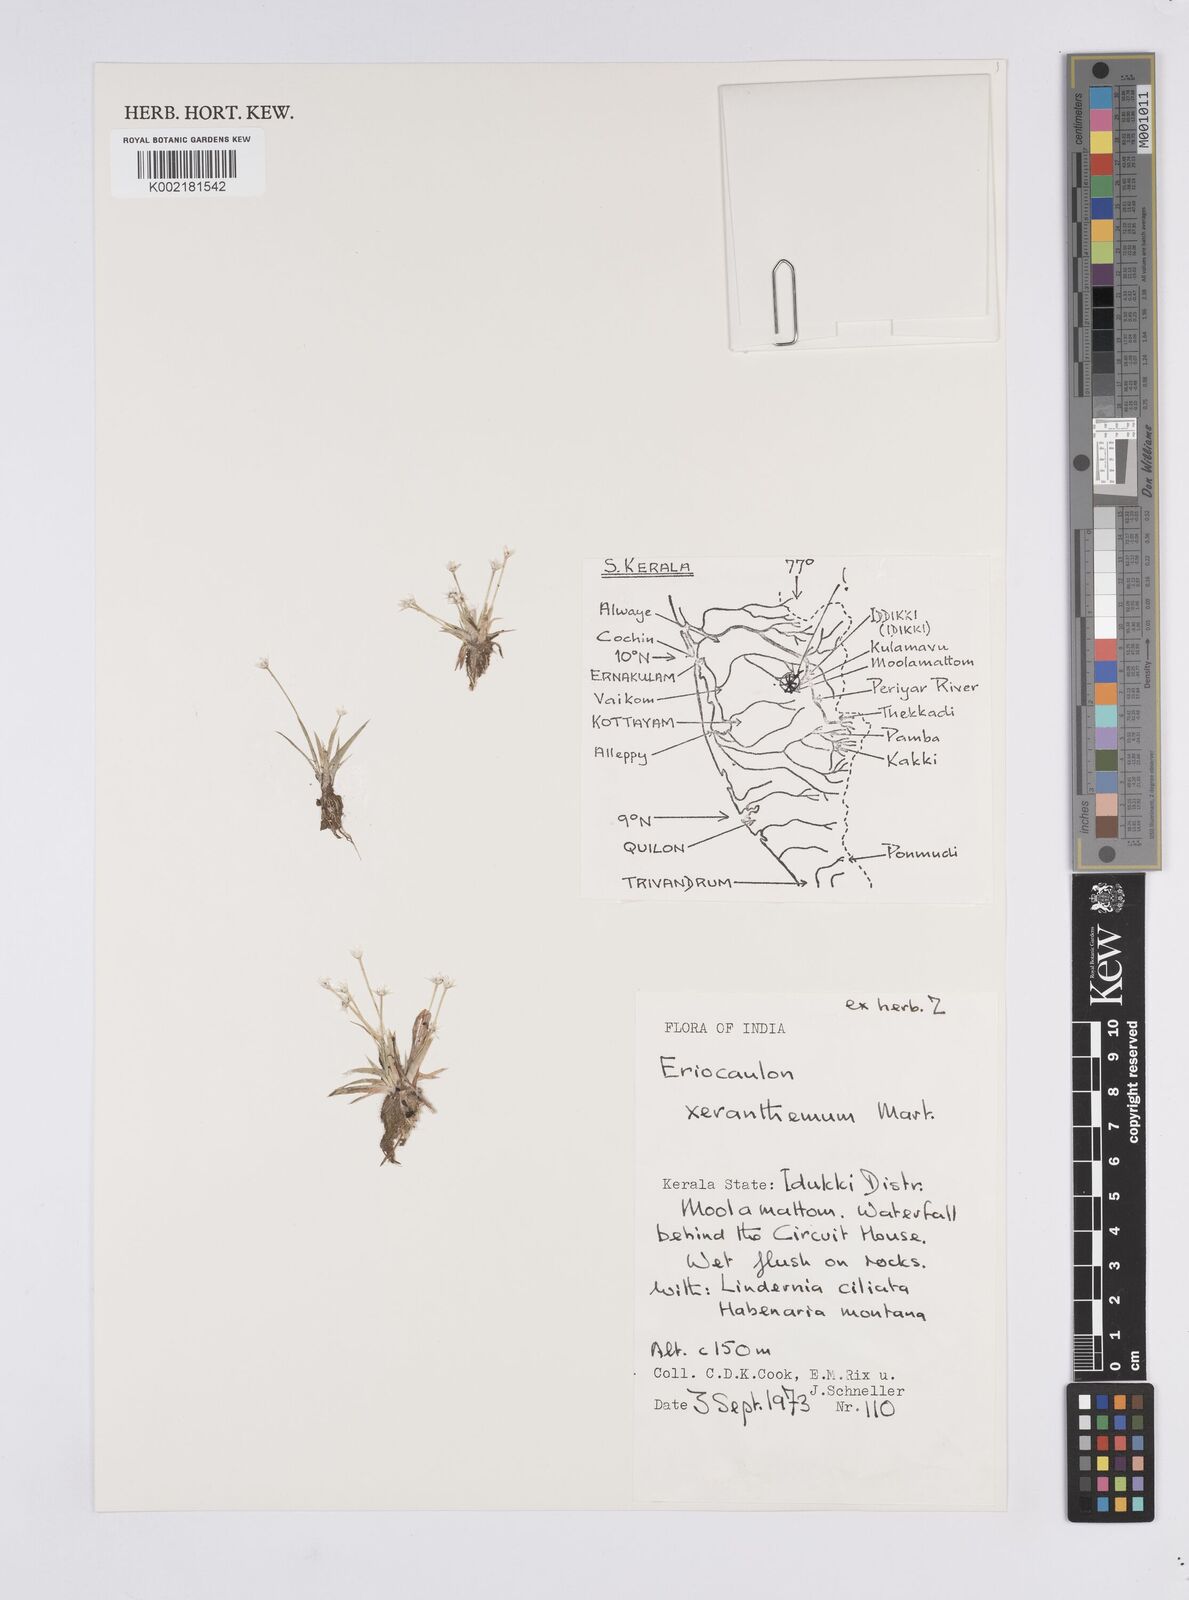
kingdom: Plantae
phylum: Tracheophyta
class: Liliopsida
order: Poales
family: Eriocaulaceae
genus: Eriocaulon
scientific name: Eriocaulon xeranthemum
